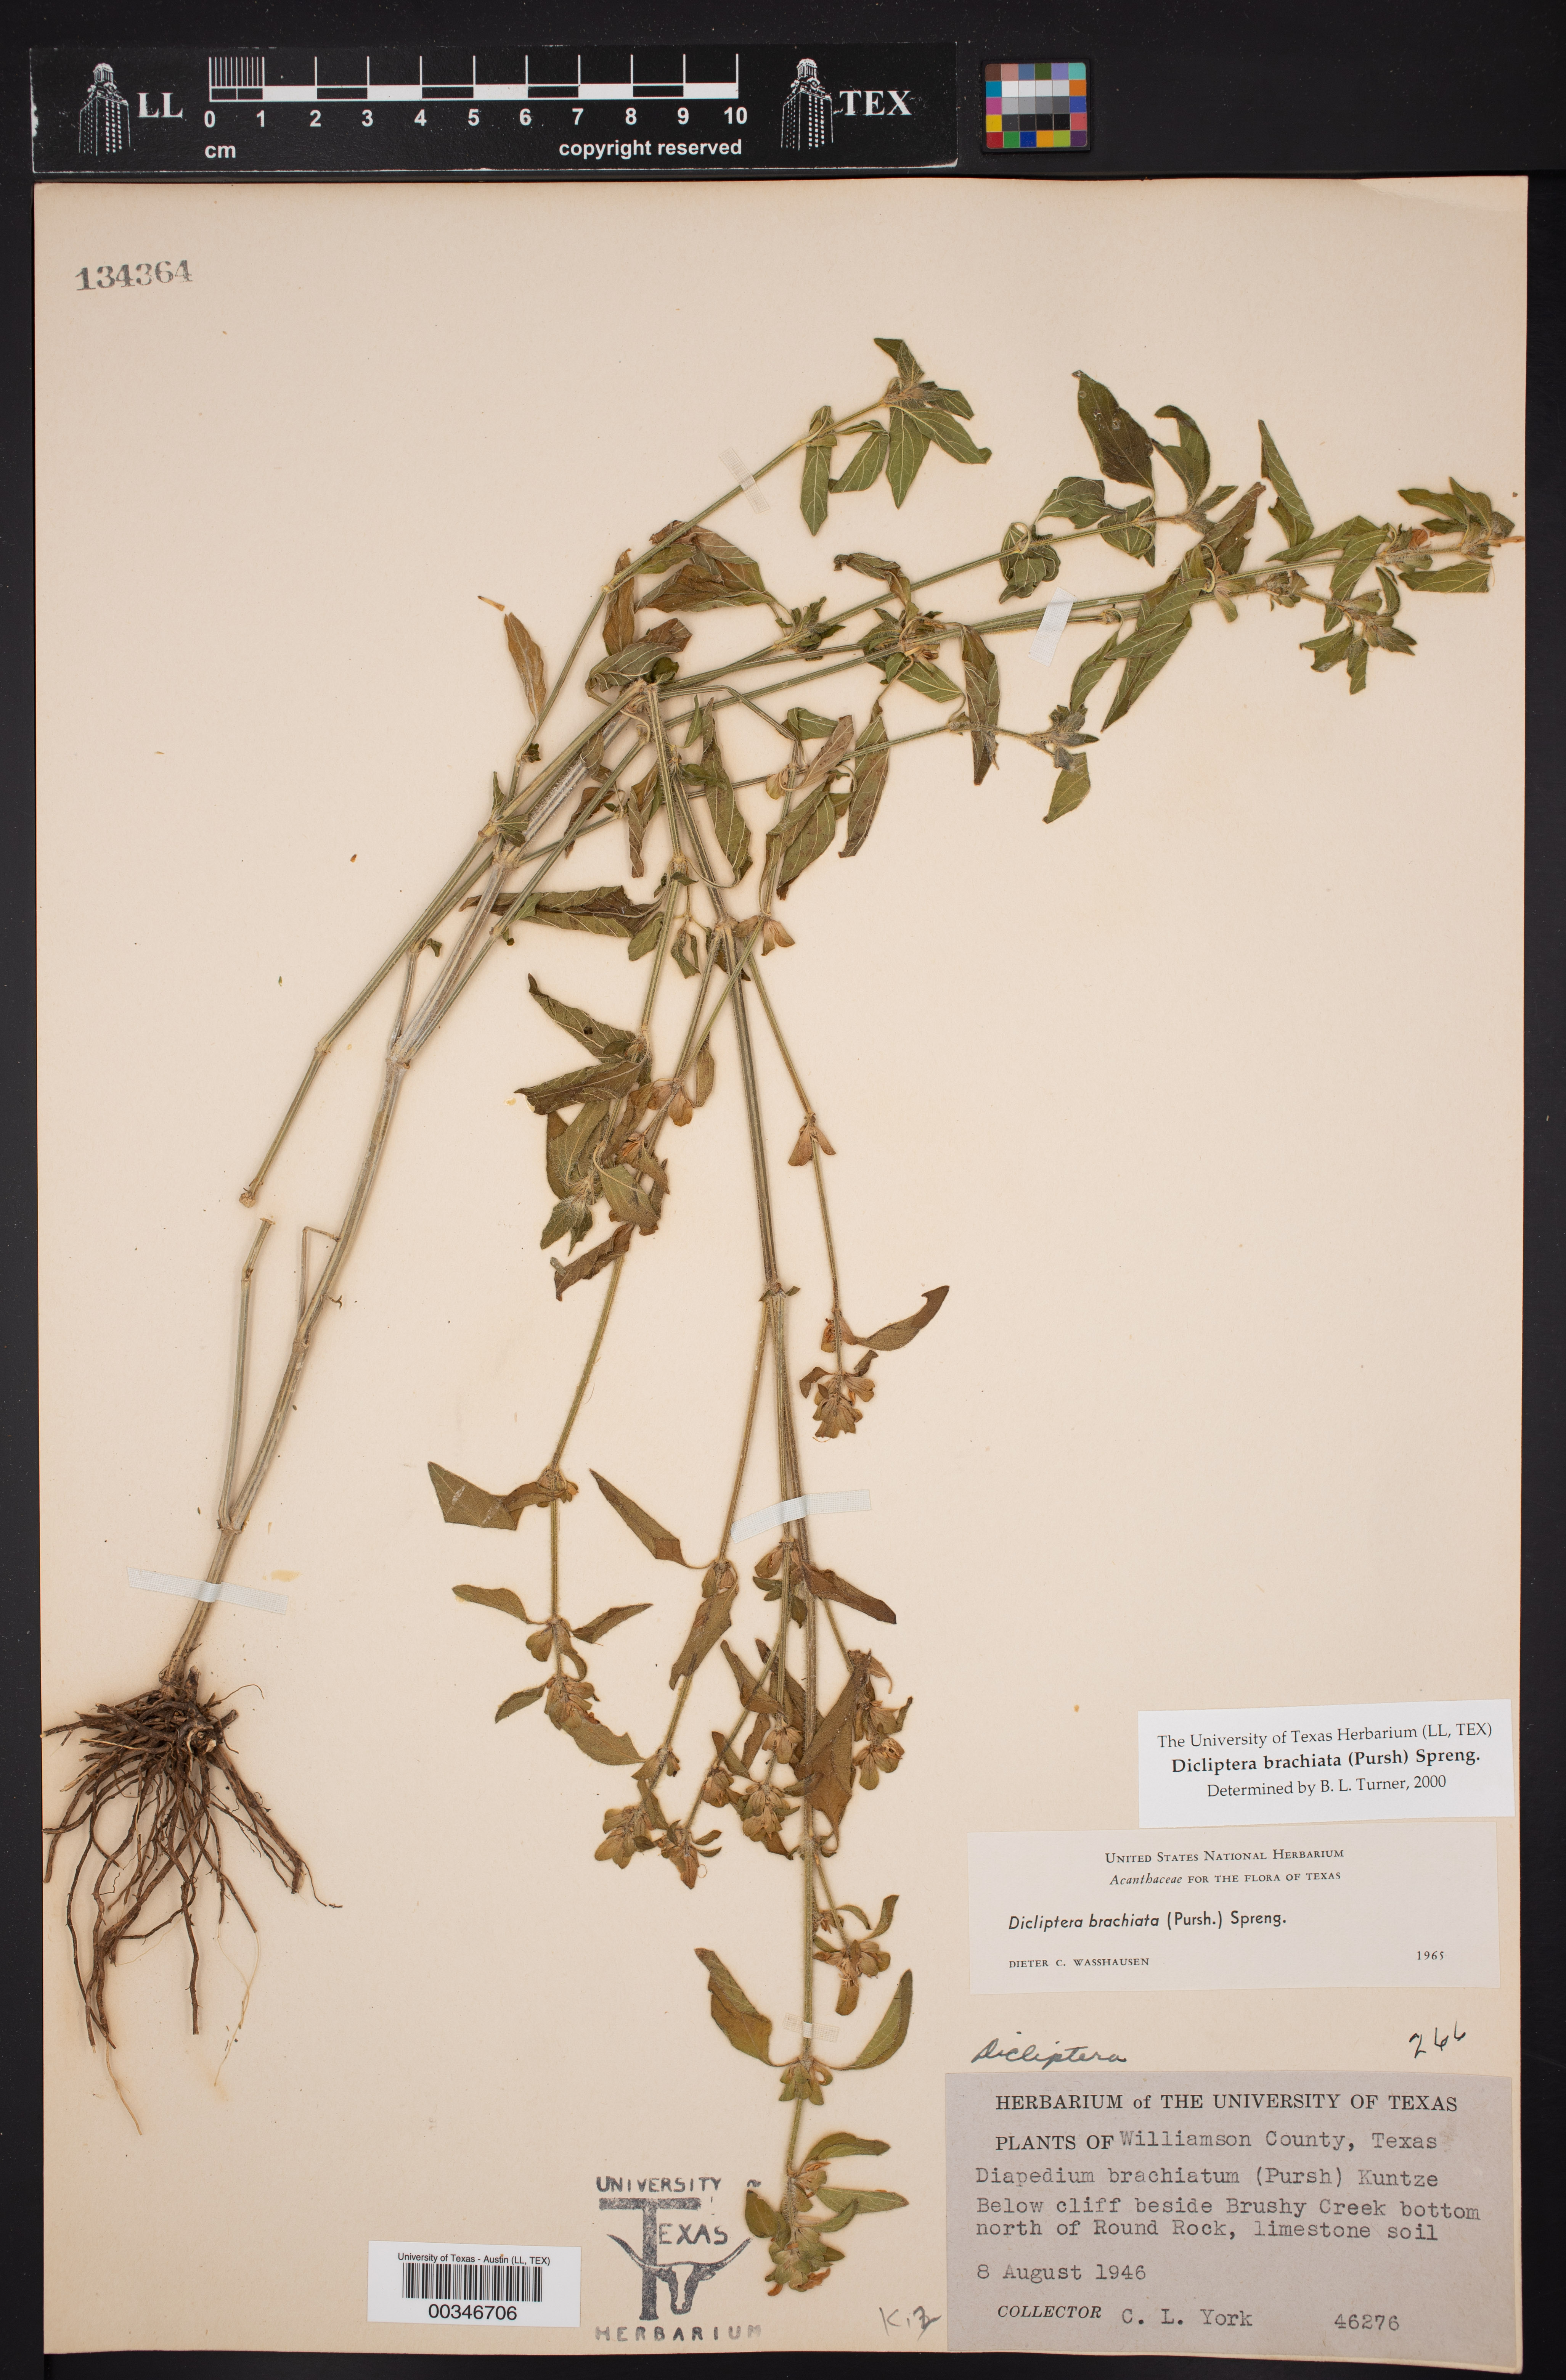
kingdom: Plantae
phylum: Tracheophyta
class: Magnoliopsida
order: Lamiales
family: Acanthaceae
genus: Dicliptera
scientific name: Dicliptera brachiata
